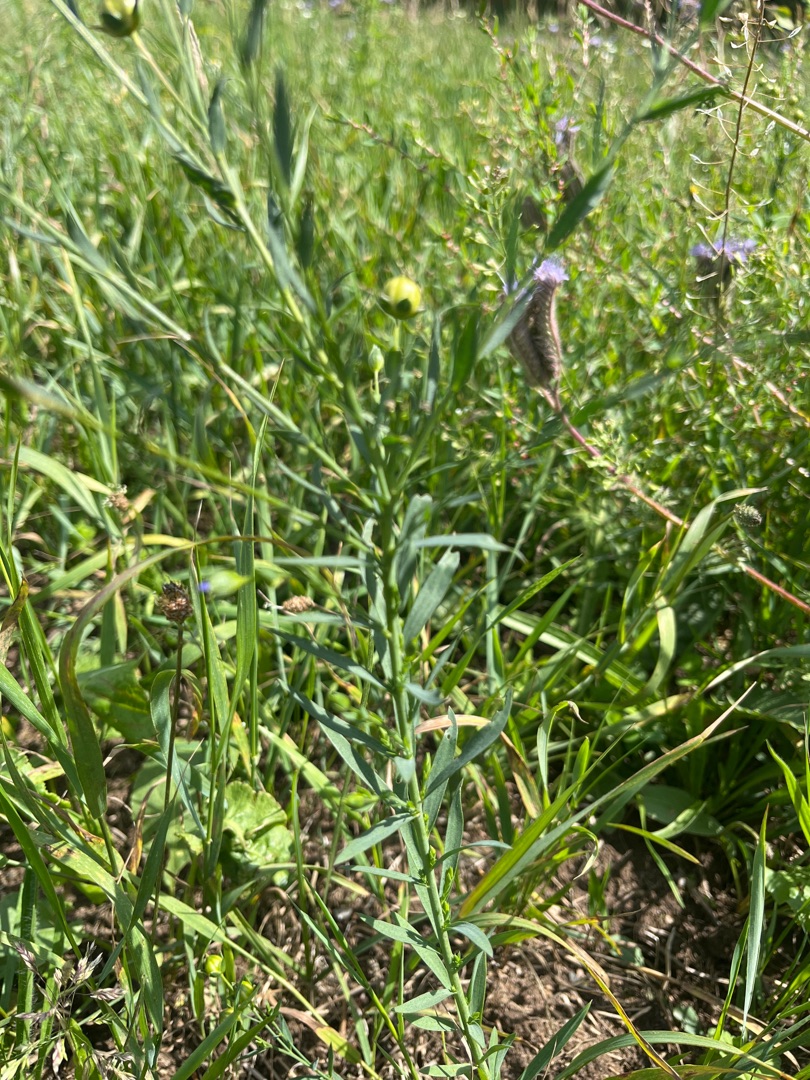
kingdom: Plantae
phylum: Tracheophyta
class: Magnoliopsida
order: Malpighiales
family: Linaceae
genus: Linum
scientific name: Linum usitatissimum
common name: Almindelig hør
